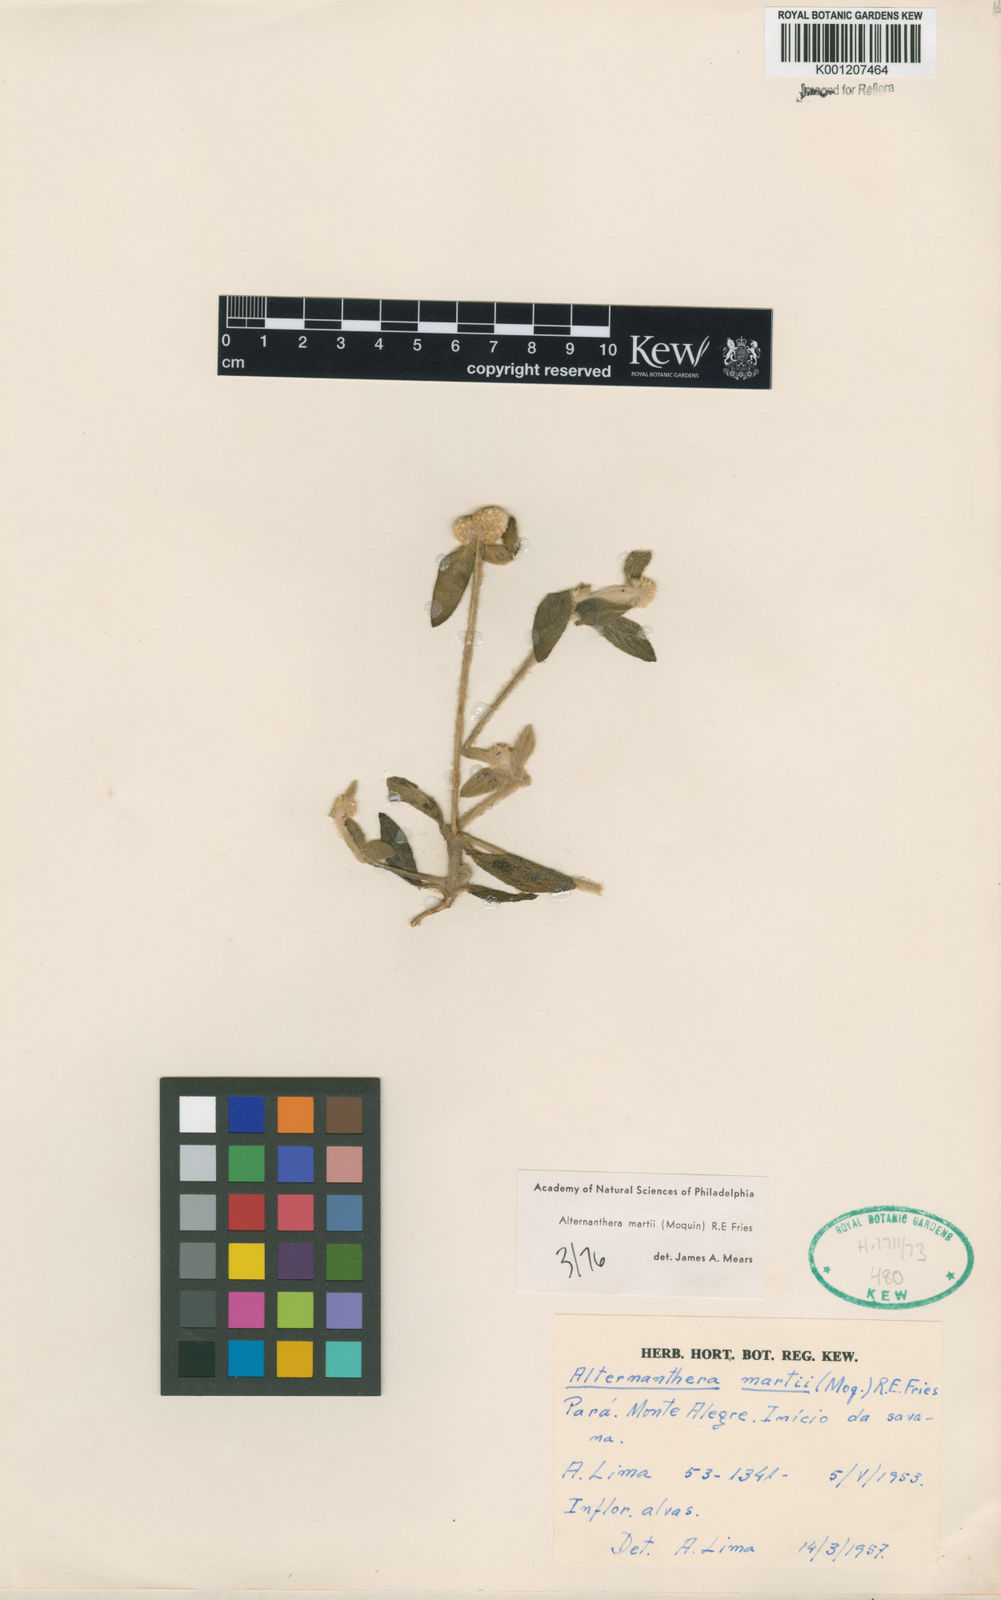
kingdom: Plantae
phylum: Tracheophyta
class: Magnoliopsida
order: Caryophyllales
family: Amaranthaceae
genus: Alternanthera
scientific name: Alternanthera martii
